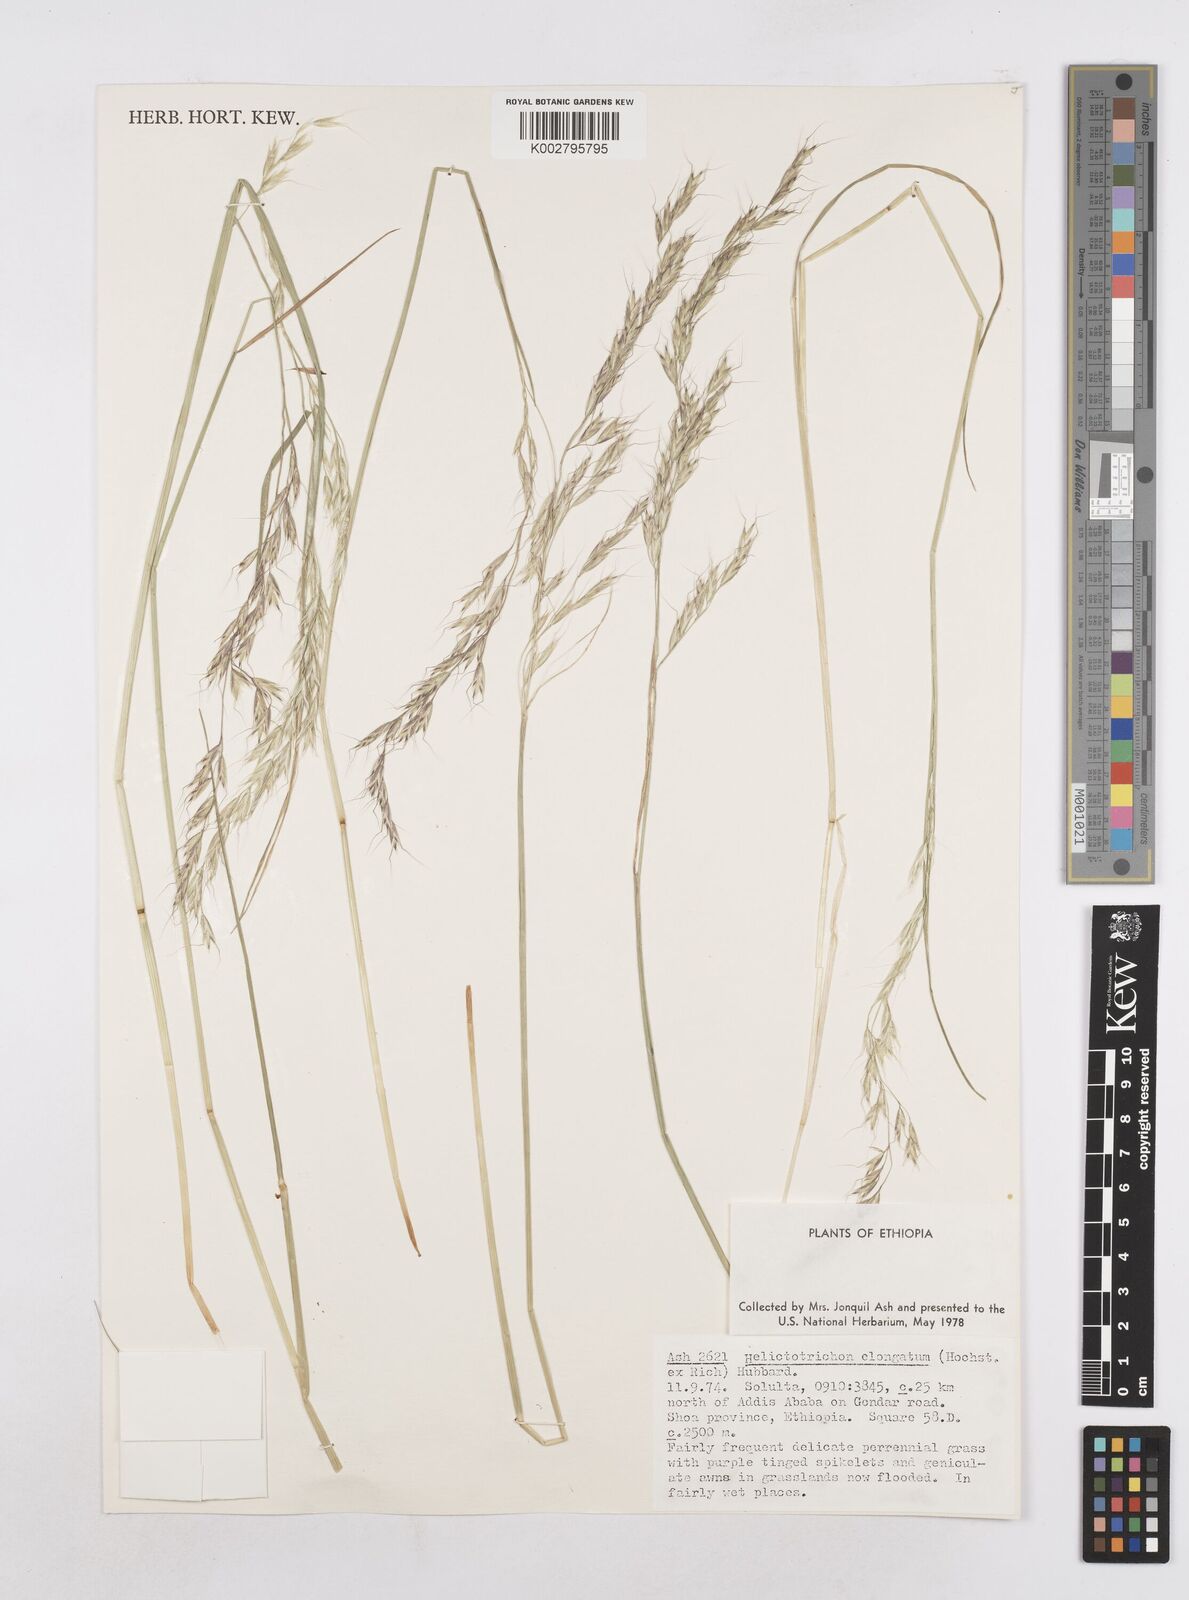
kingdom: Plantae
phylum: Tracheophyta
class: Liliopsida
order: Poales
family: Poaceae
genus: Trisetopsis
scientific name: Trisetopsis elongata
